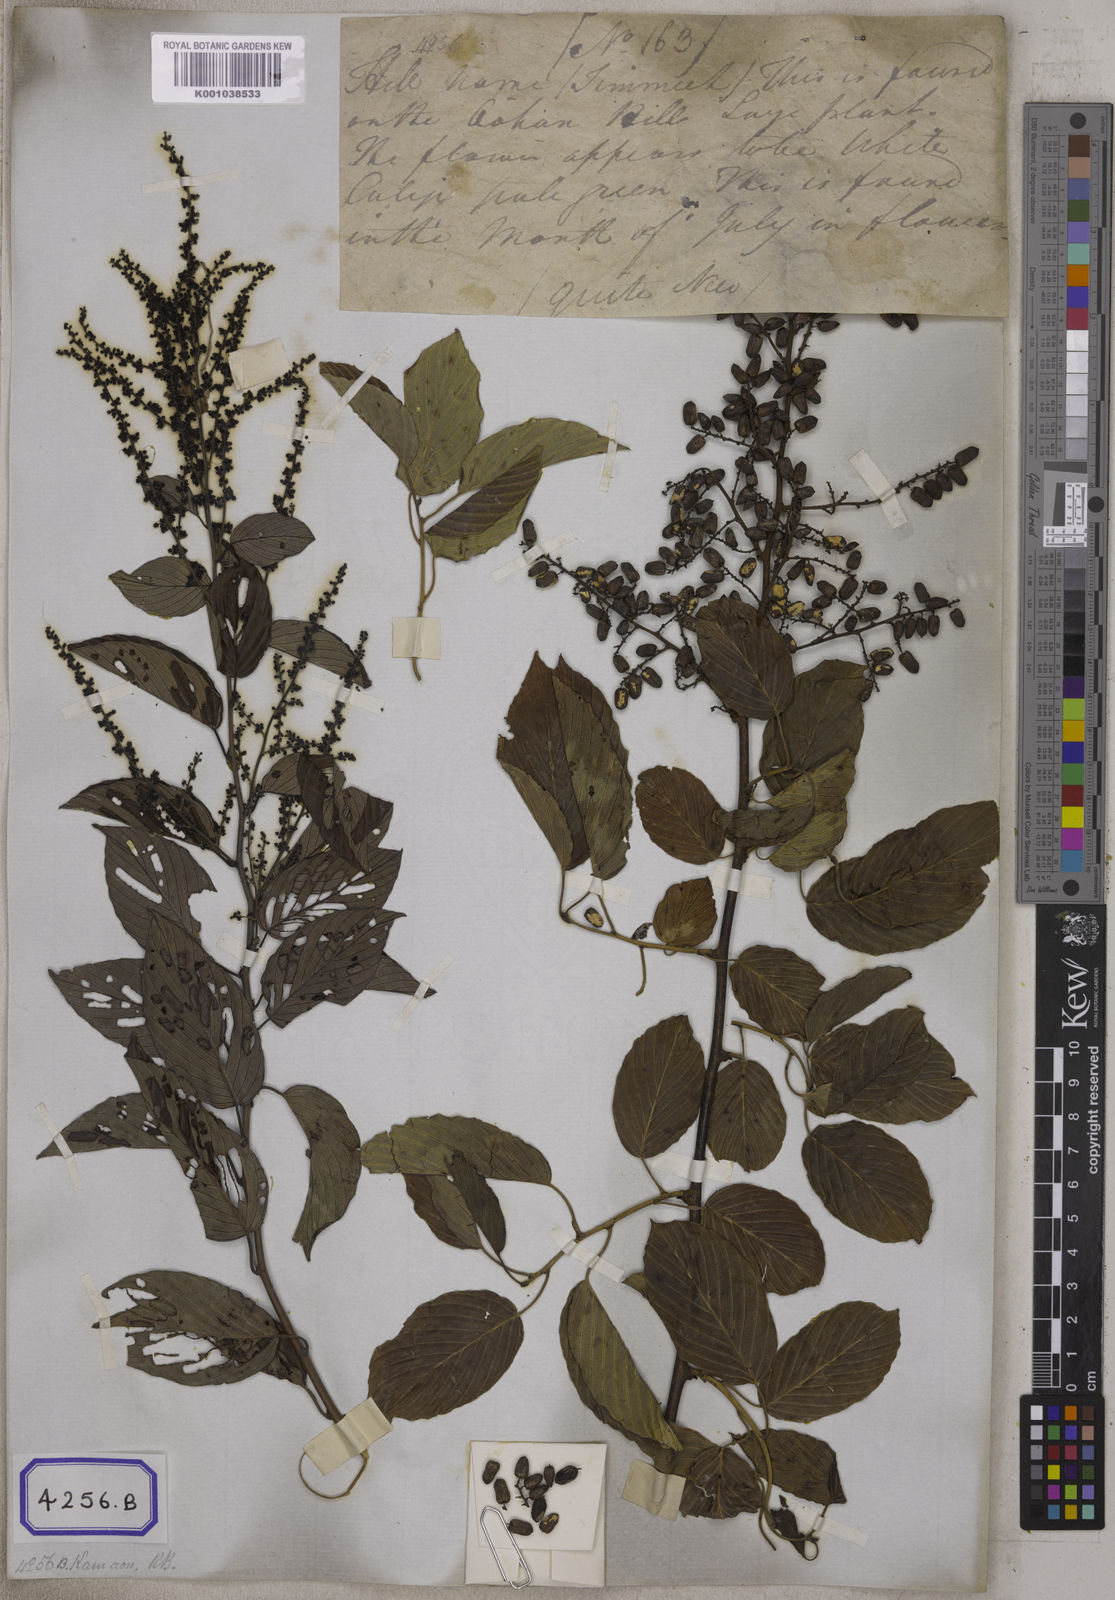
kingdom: Plantae
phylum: Tracheophyta
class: Magnoliopsida
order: Rosales
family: Rhamnaceae
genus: Berchemia
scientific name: Berchemia floribunda
